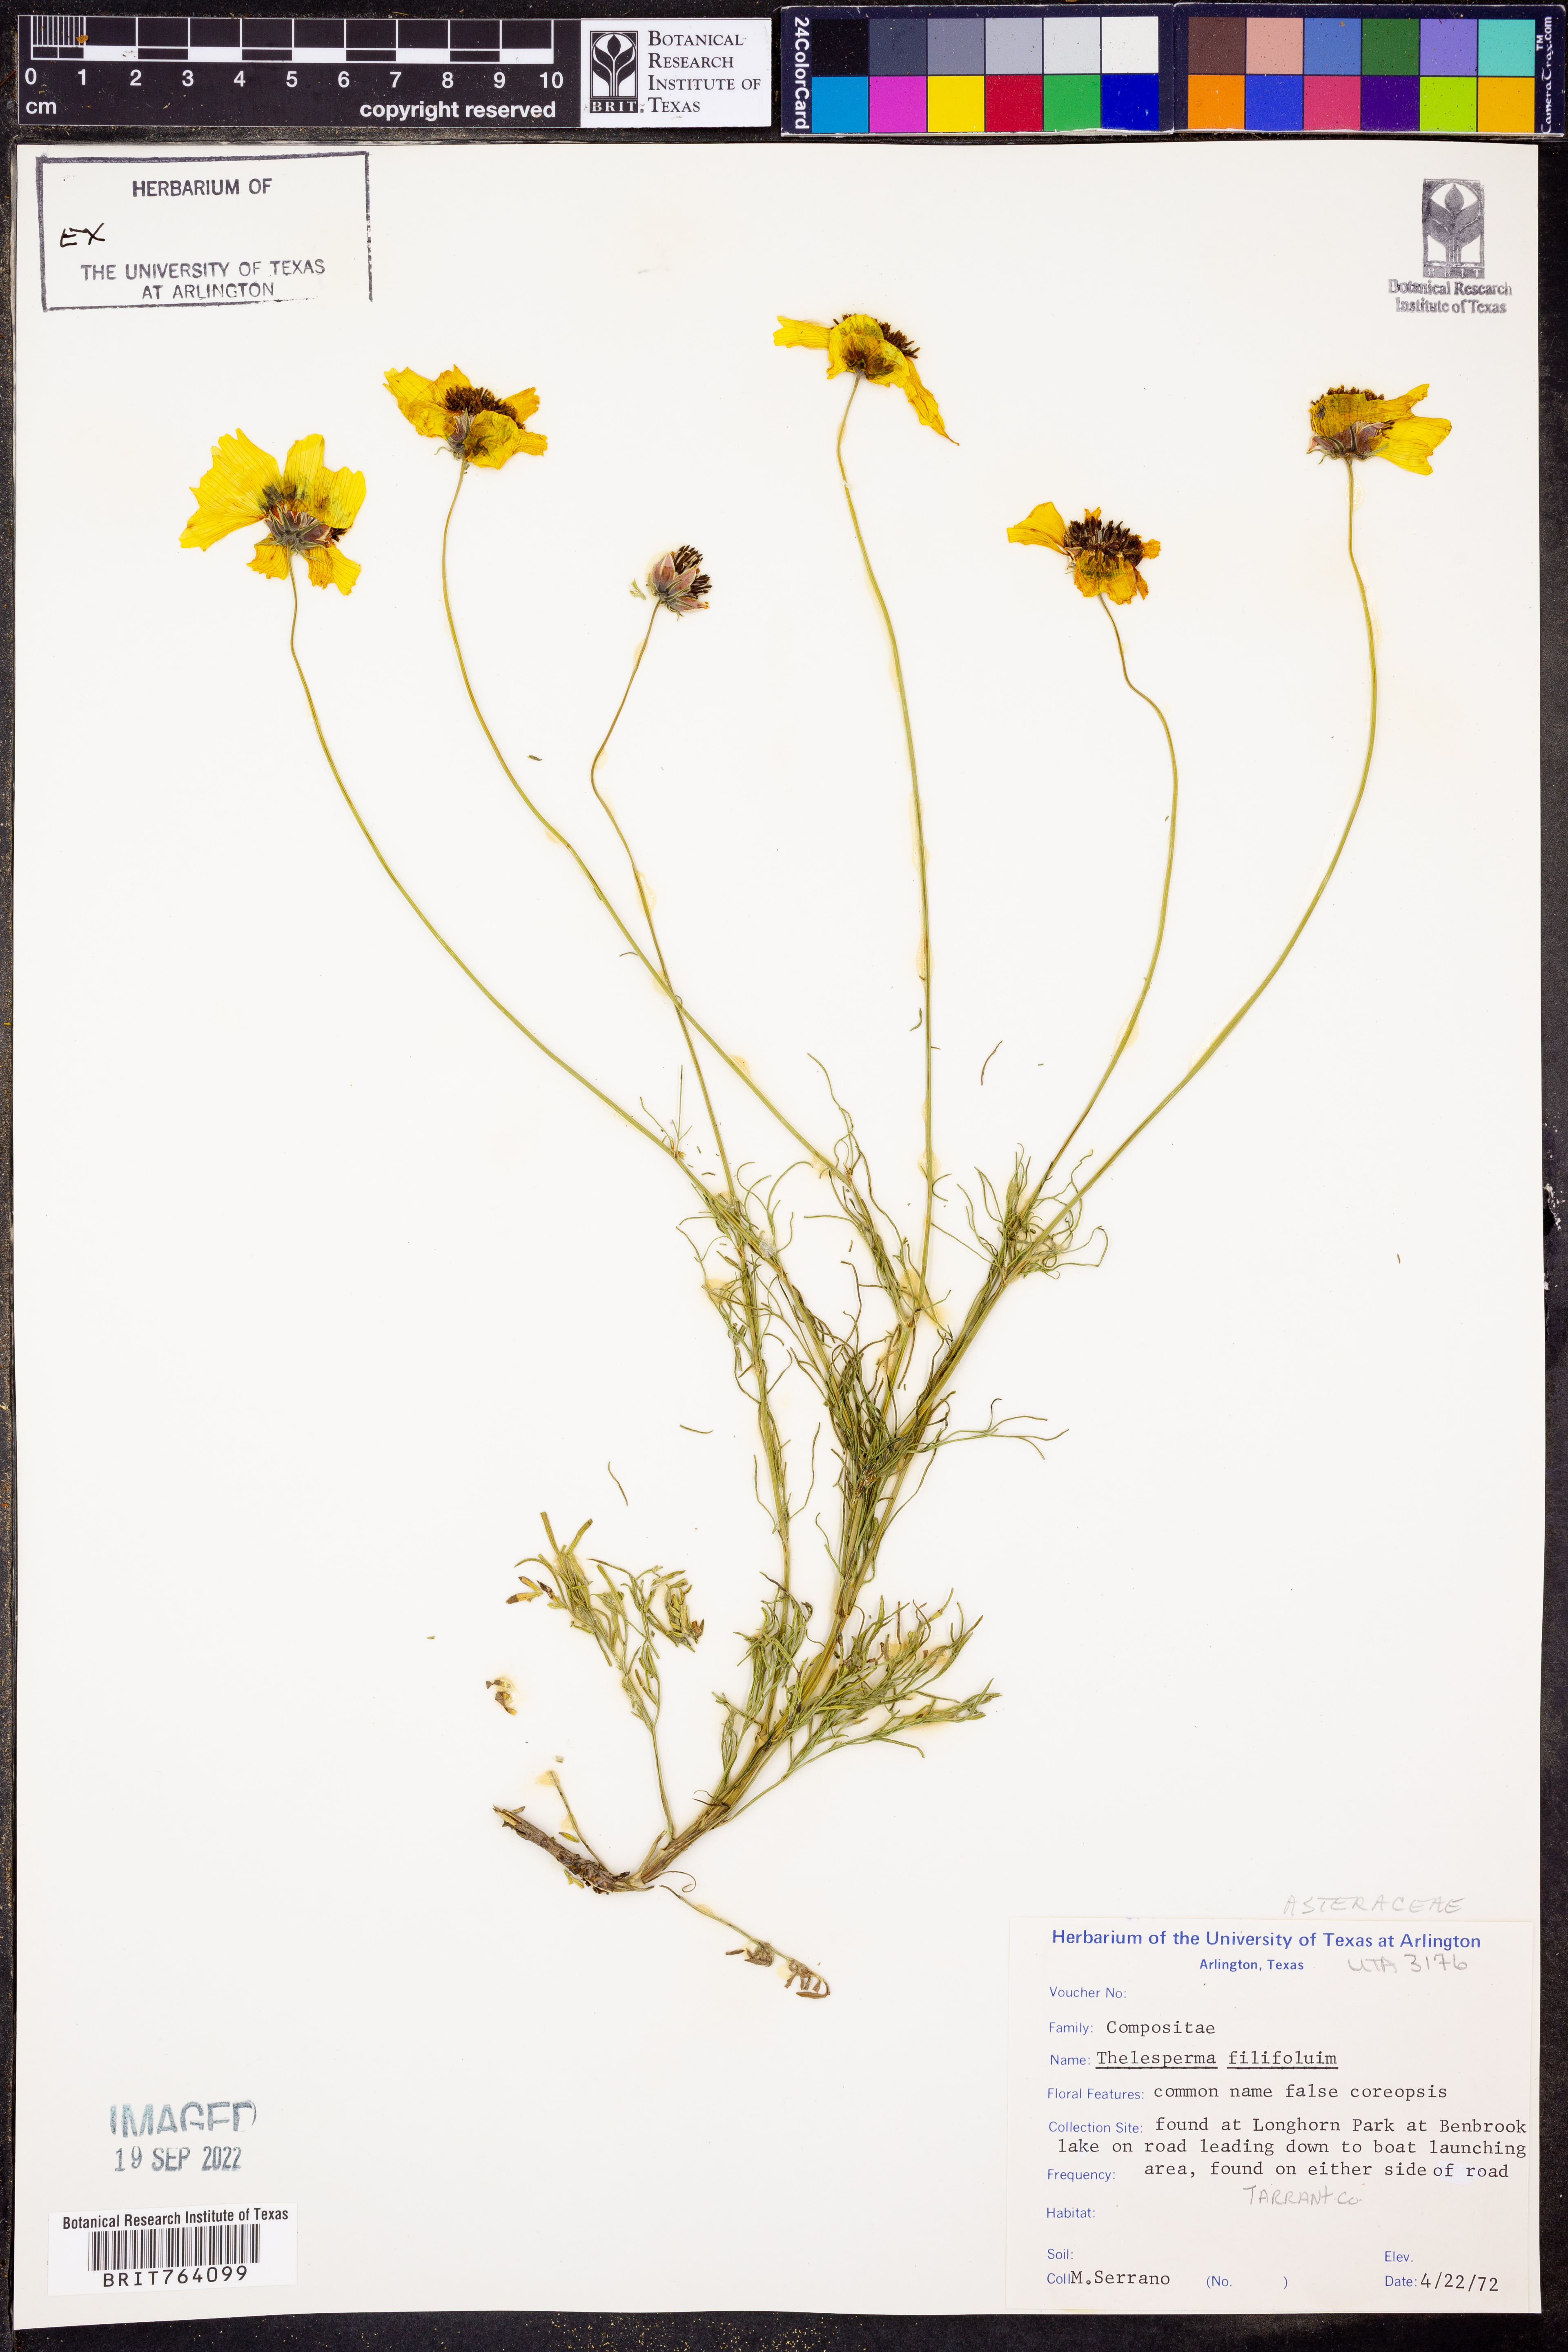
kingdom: Plantae
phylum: Tracheophyta
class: Magnoliopsida
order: Asterales
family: Asteraceae
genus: Thelesperma
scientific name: Thelesperma filifolium
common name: Stiff greenthread
